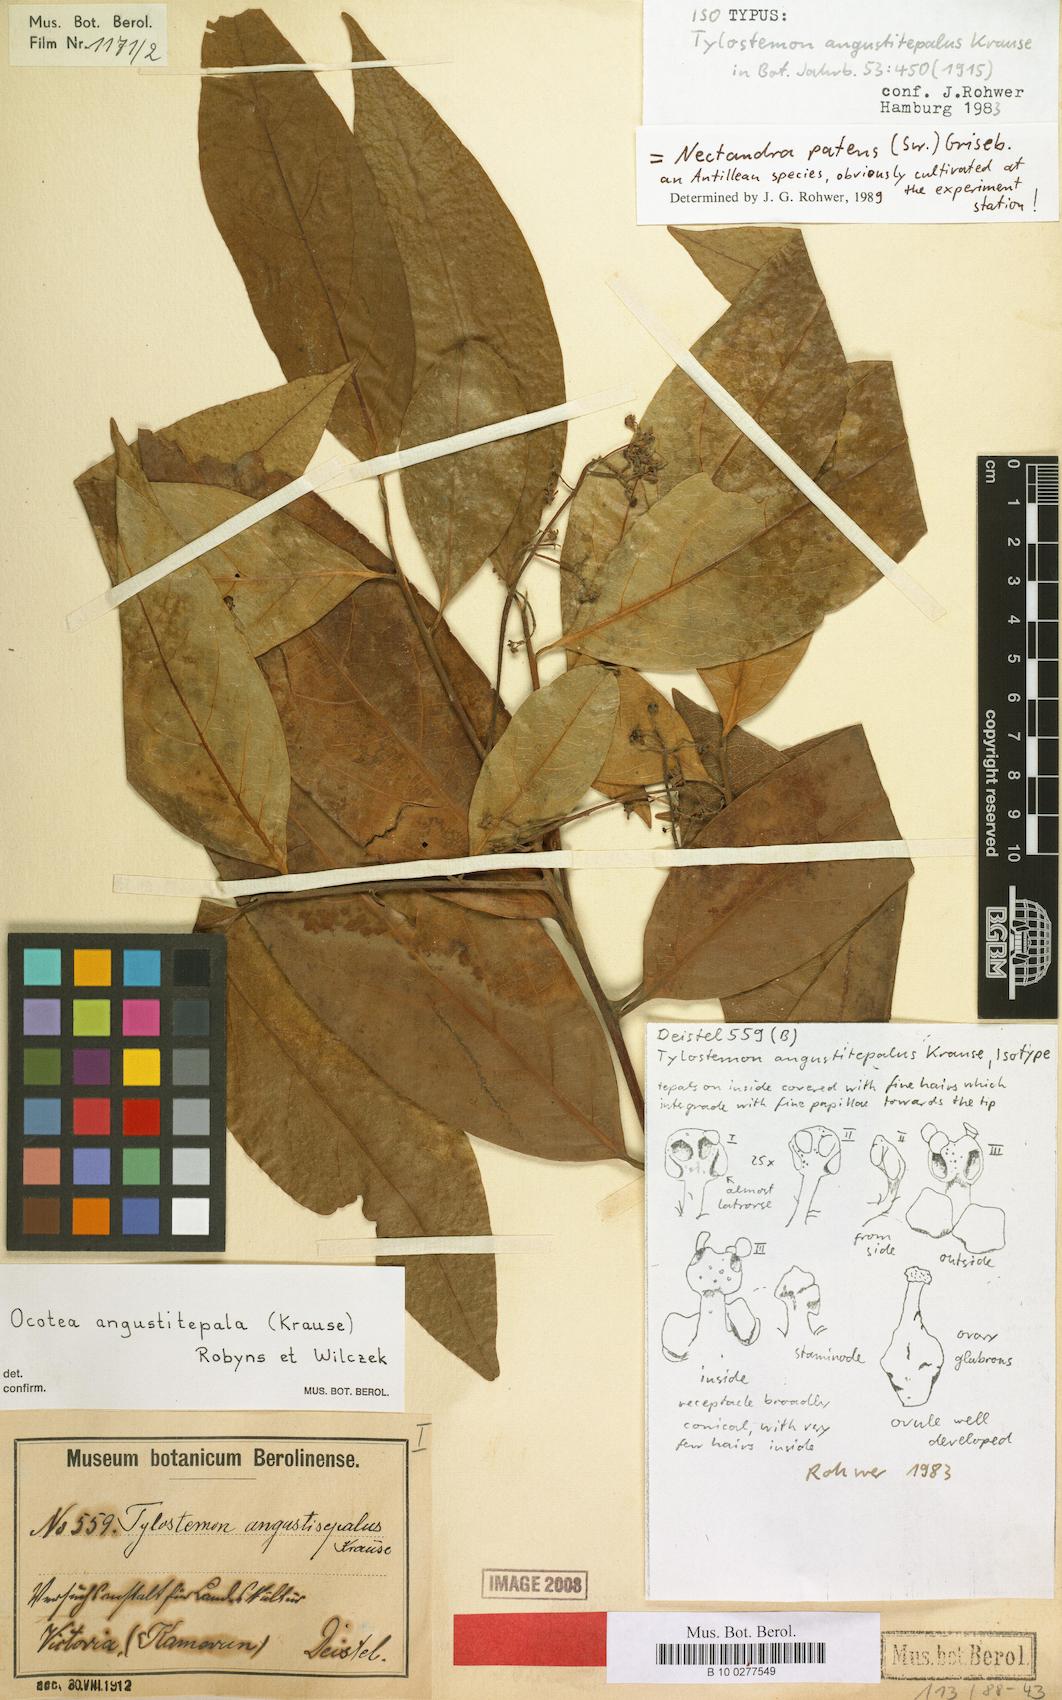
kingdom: Plantae
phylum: Tracheophyta
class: Magnoliopsida
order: Laurales
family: Lauraceae
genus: Damburneya
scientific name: Damburneya patens
